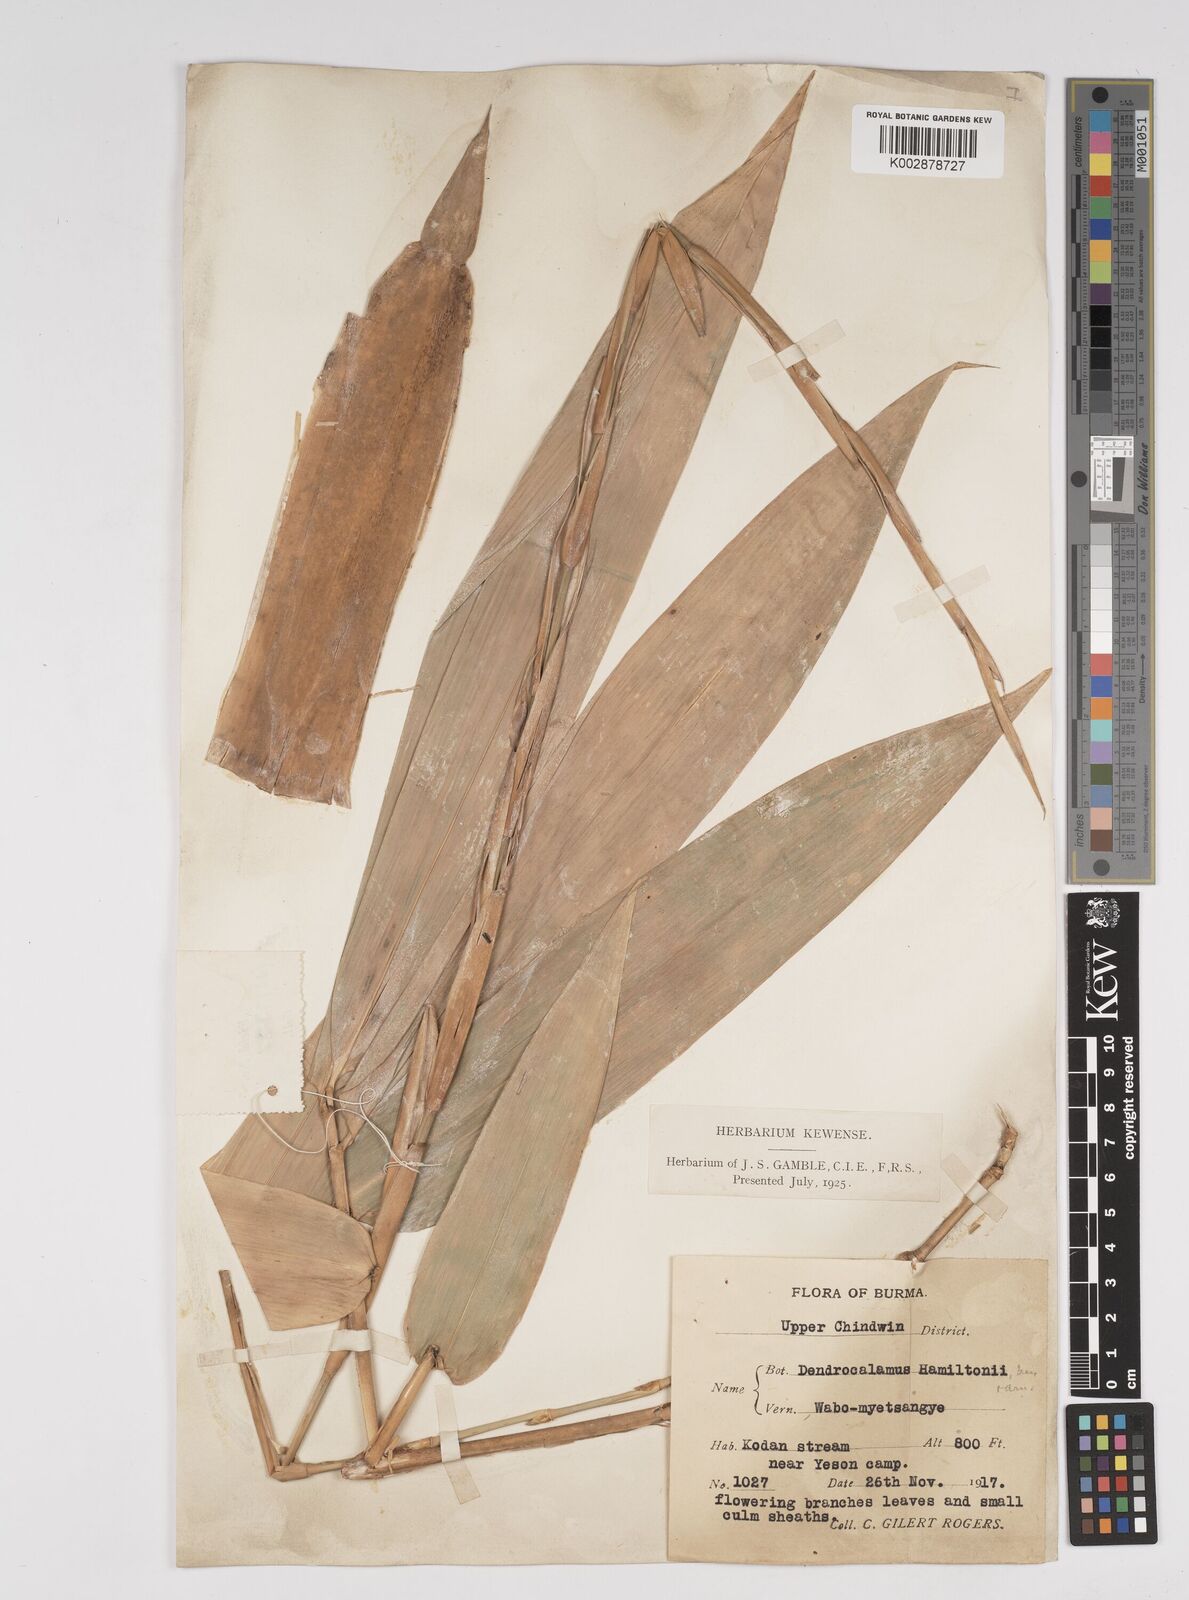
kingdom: Plantae
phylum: Tracheophyta
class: Liliopsida
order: Poales
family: Poaceae
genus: Dendrocalamus
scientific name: Dendrocalamus hamiltonii
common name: Tama bamboo
